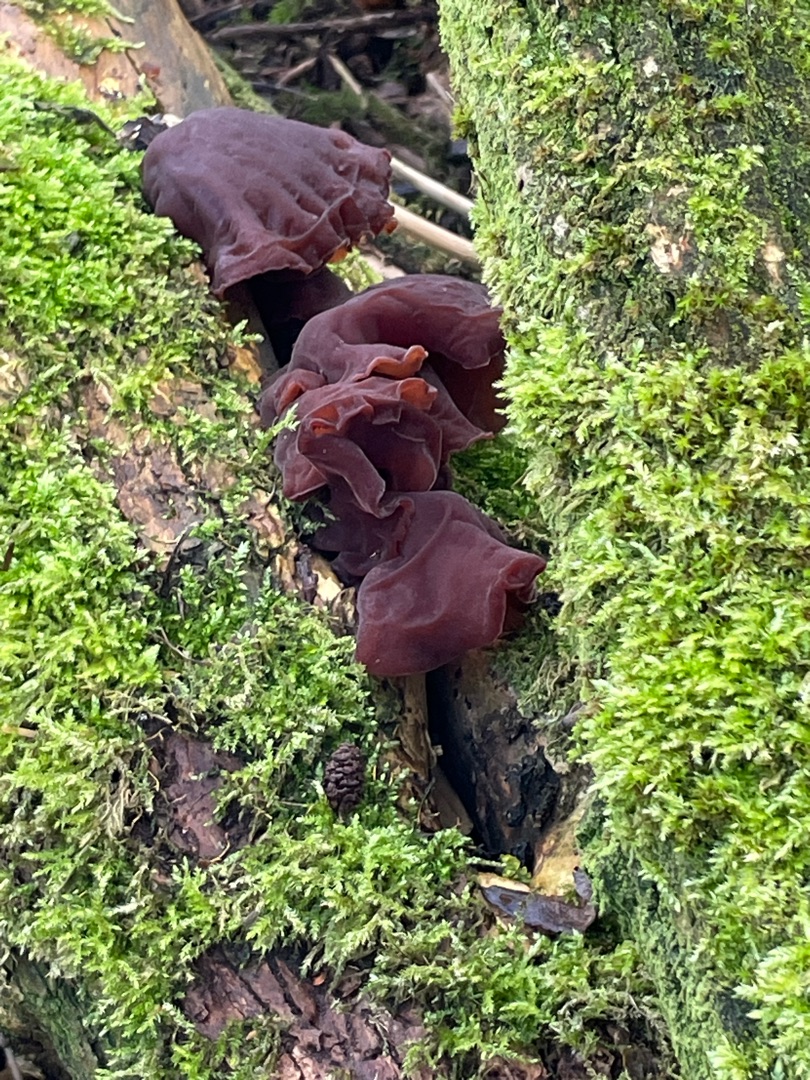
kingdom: Fungi
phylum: Basidiomycota
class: Agaricomycetes
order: Auriculariales
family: Auriculariaceae
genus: Auricularia
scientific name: Auricularia auricula-judae
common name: Almindelig judasøre
